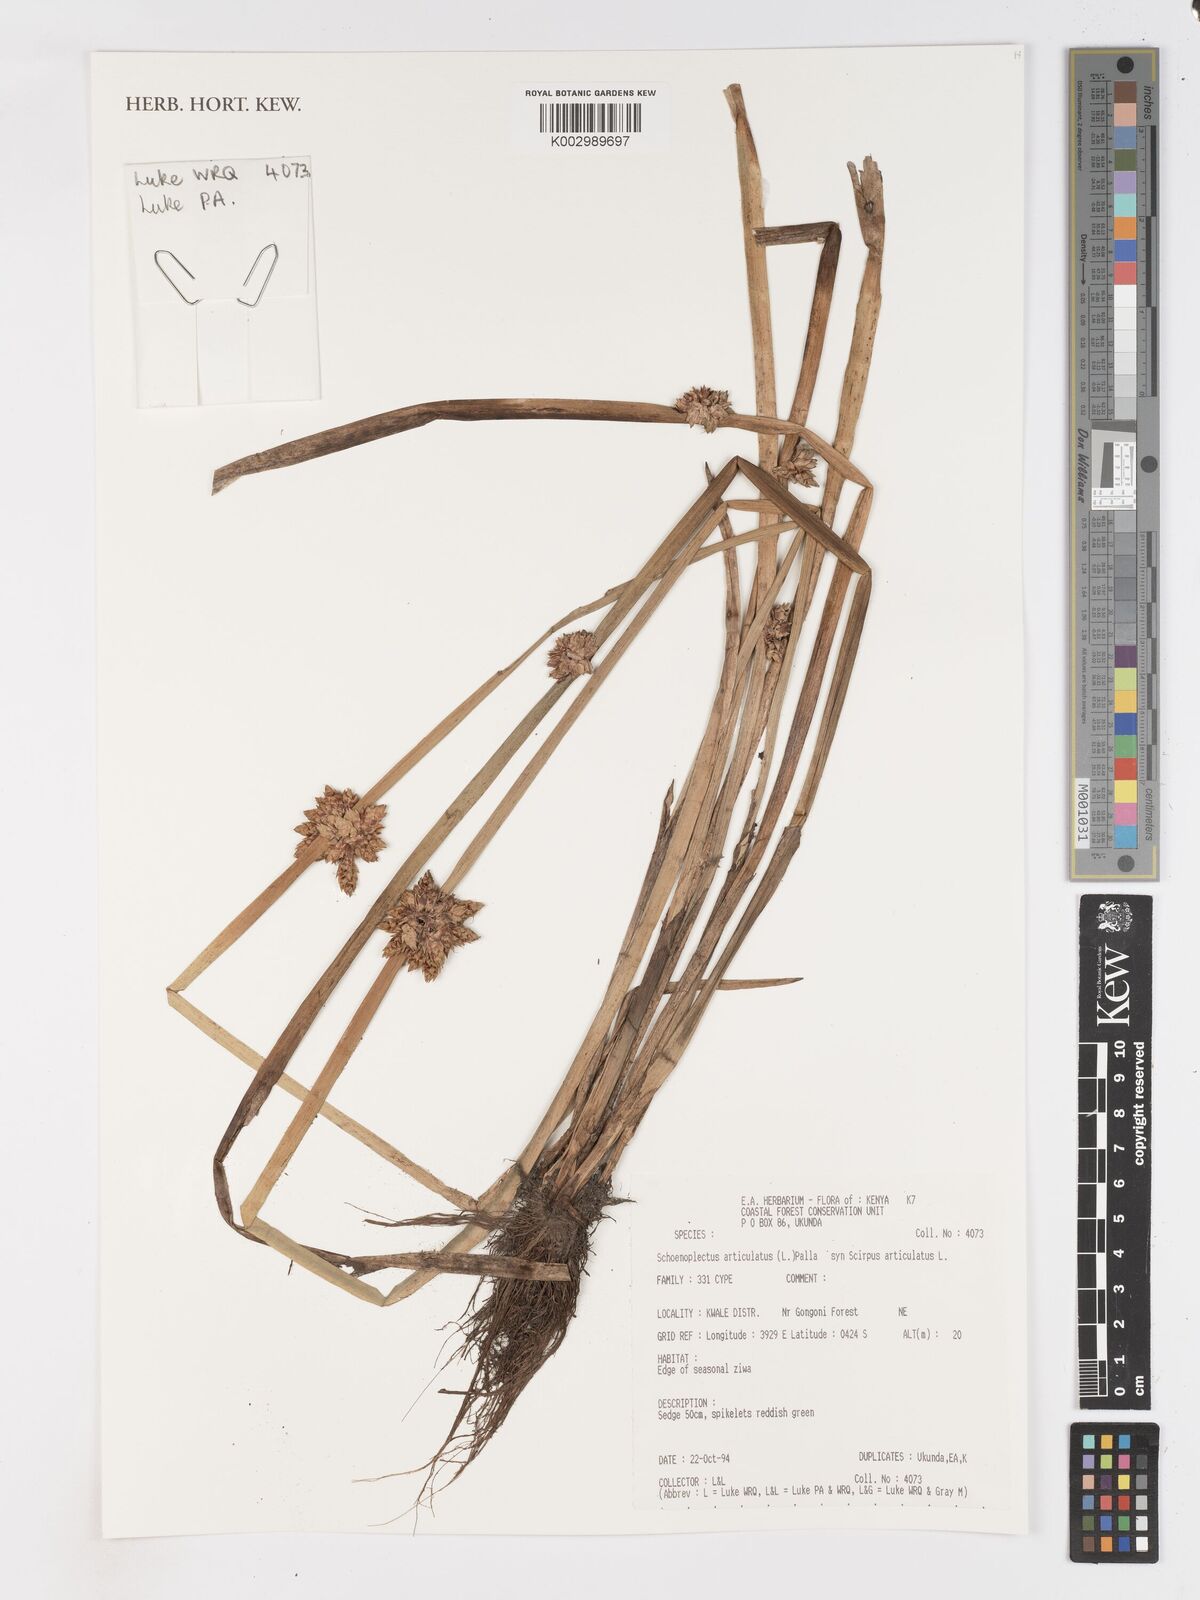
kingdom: Plantae
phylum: Tracheophyta
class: Liliopsida
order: Poales
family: Cyperaceae
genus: Schoenoplectiella
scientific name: Schoenoplectiella articulata
